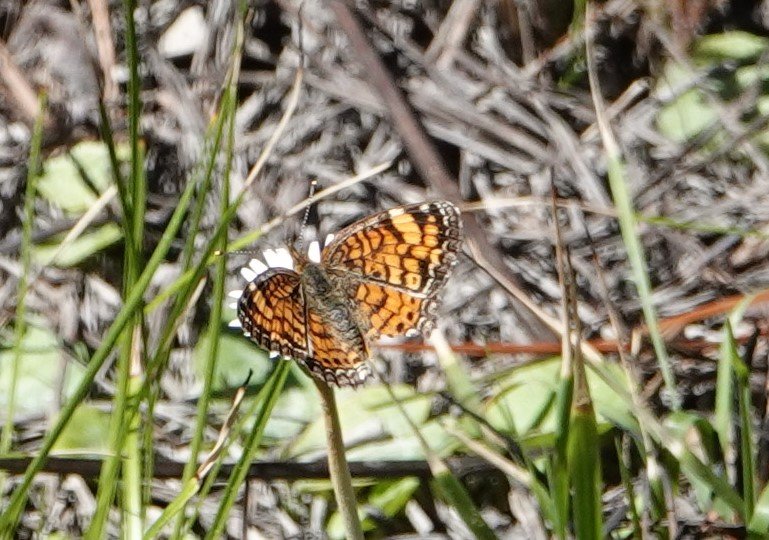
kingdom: Animalia
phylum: Arthropoda
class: Insecta
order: Lepidoptera
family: Nymphalidae
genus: Phyciodes
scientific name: Phyciodes tharos
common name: Pearl Crescent
